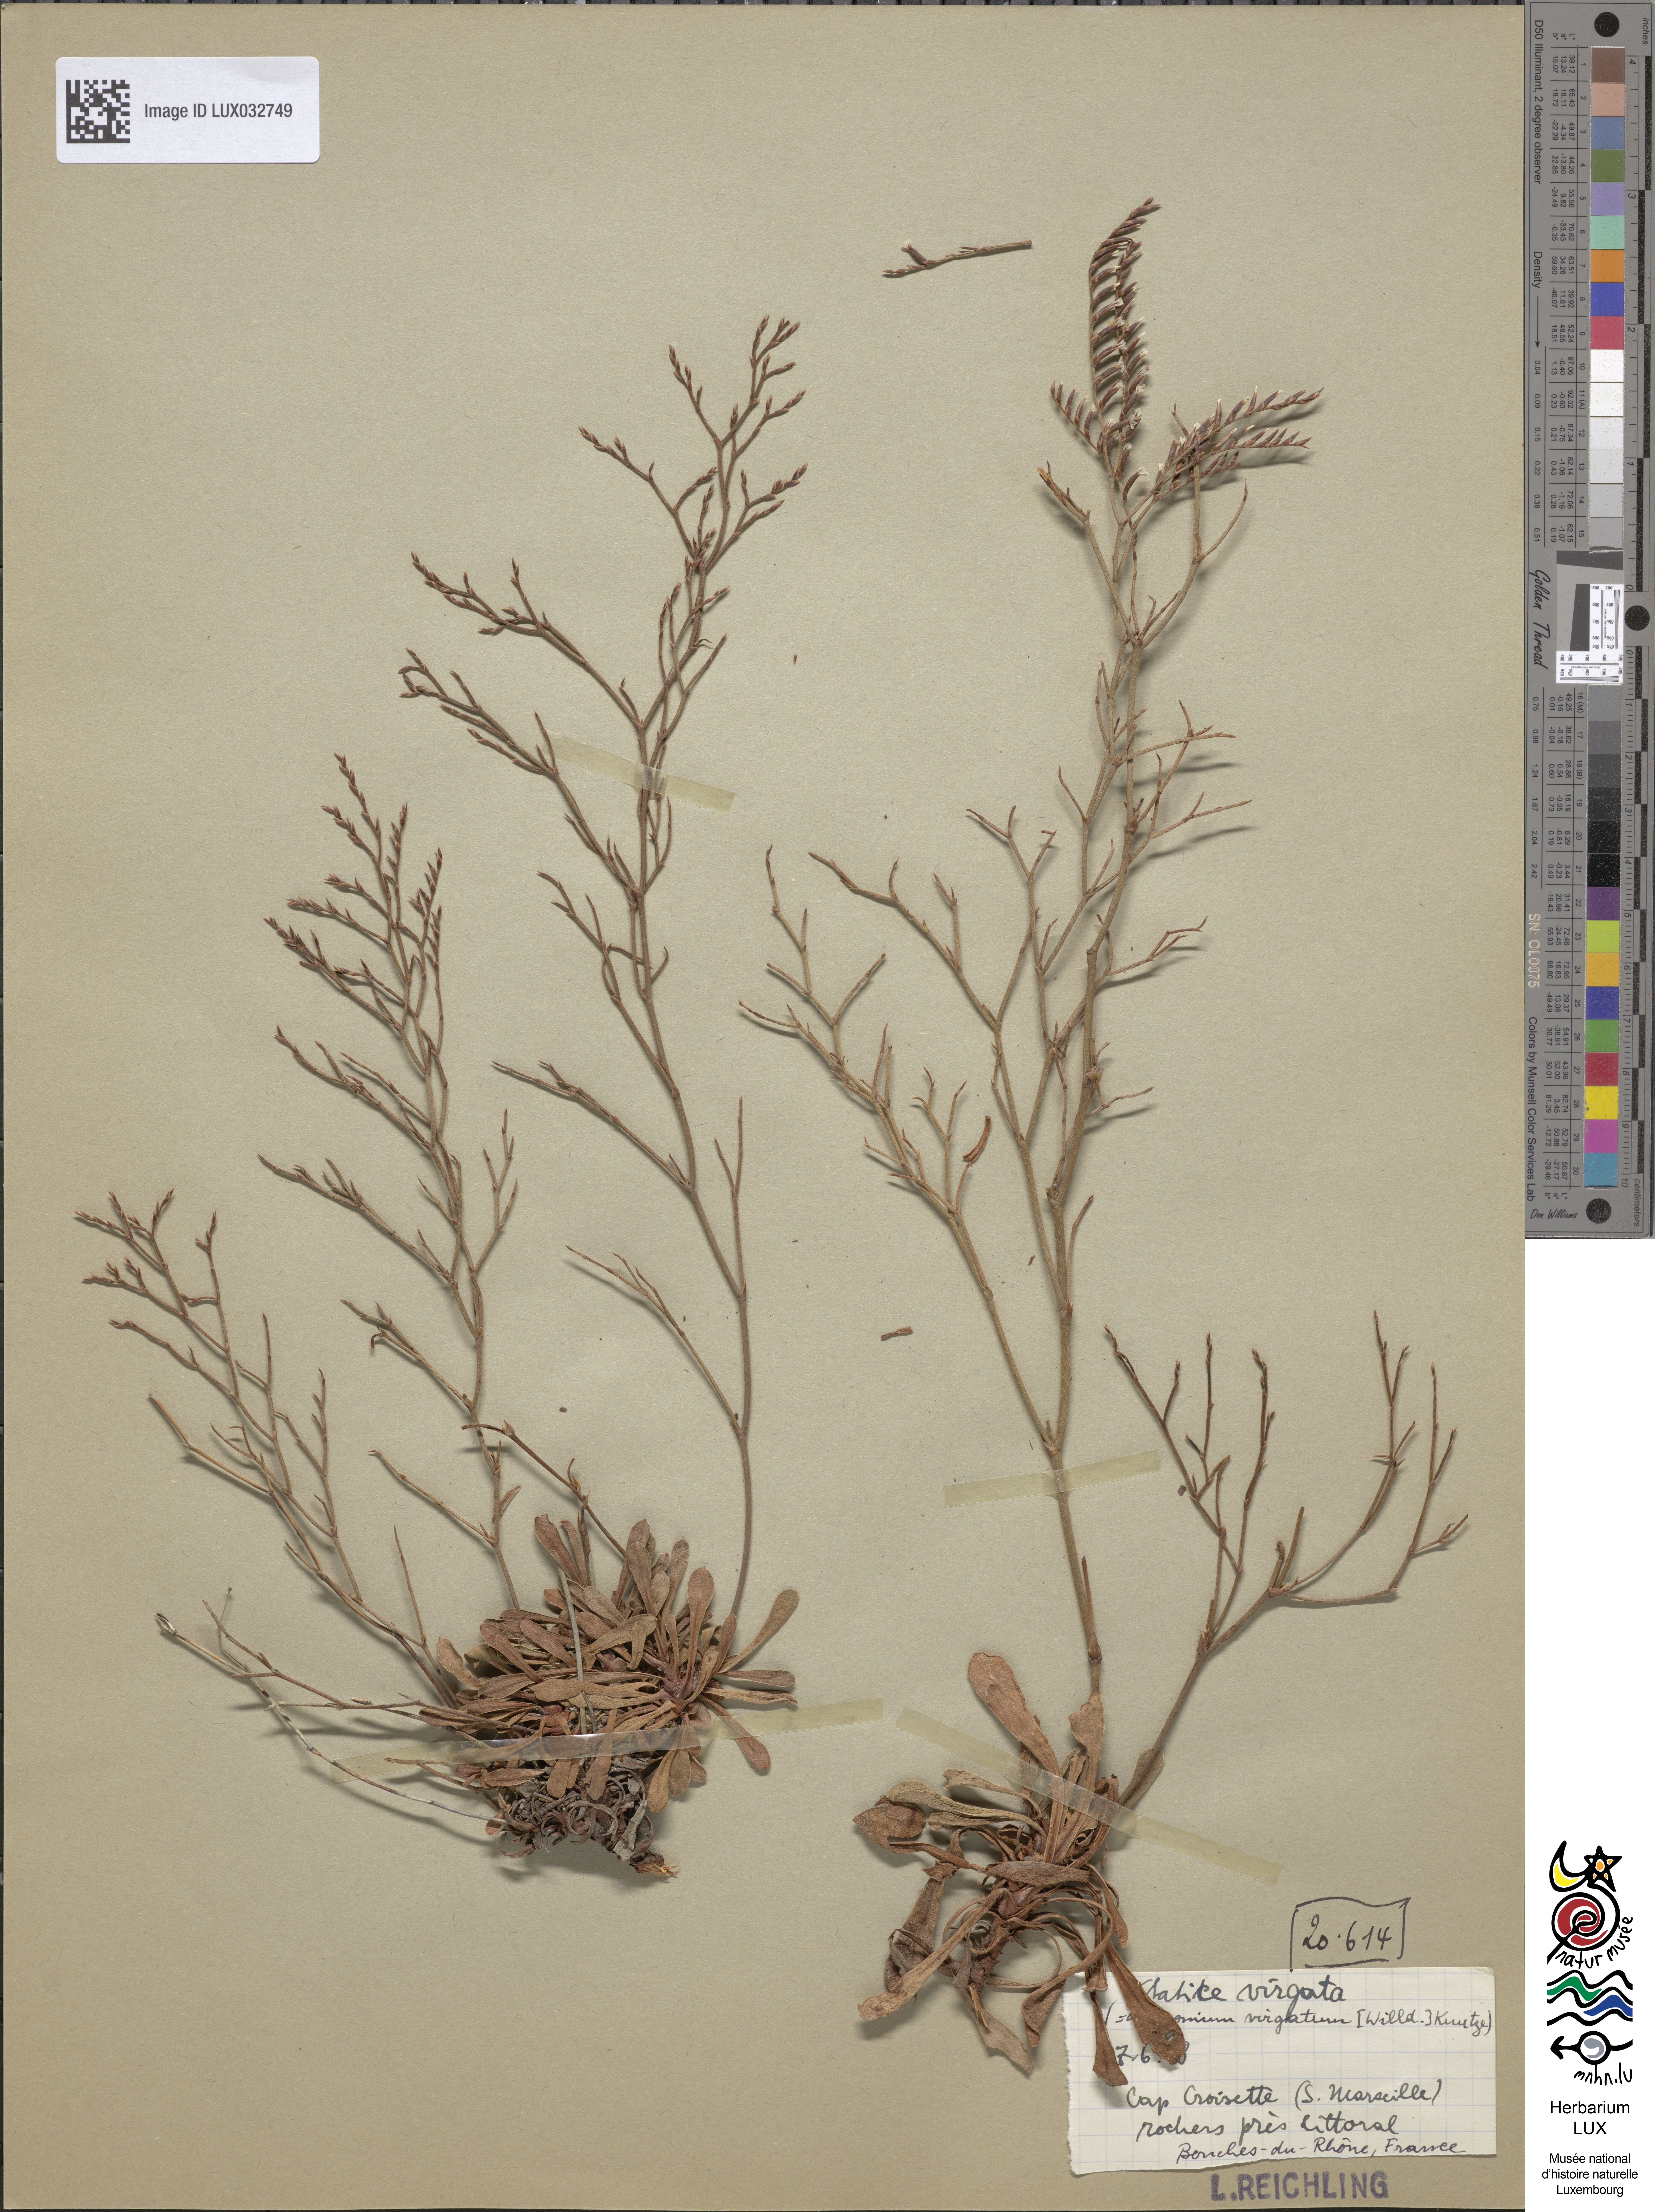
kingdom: Plantae
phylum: Tracheophyta
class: Magnoliopsida
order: Caryophyllales
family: Plumbaginaceae
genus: Limonium
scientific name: Limonium virgatum
